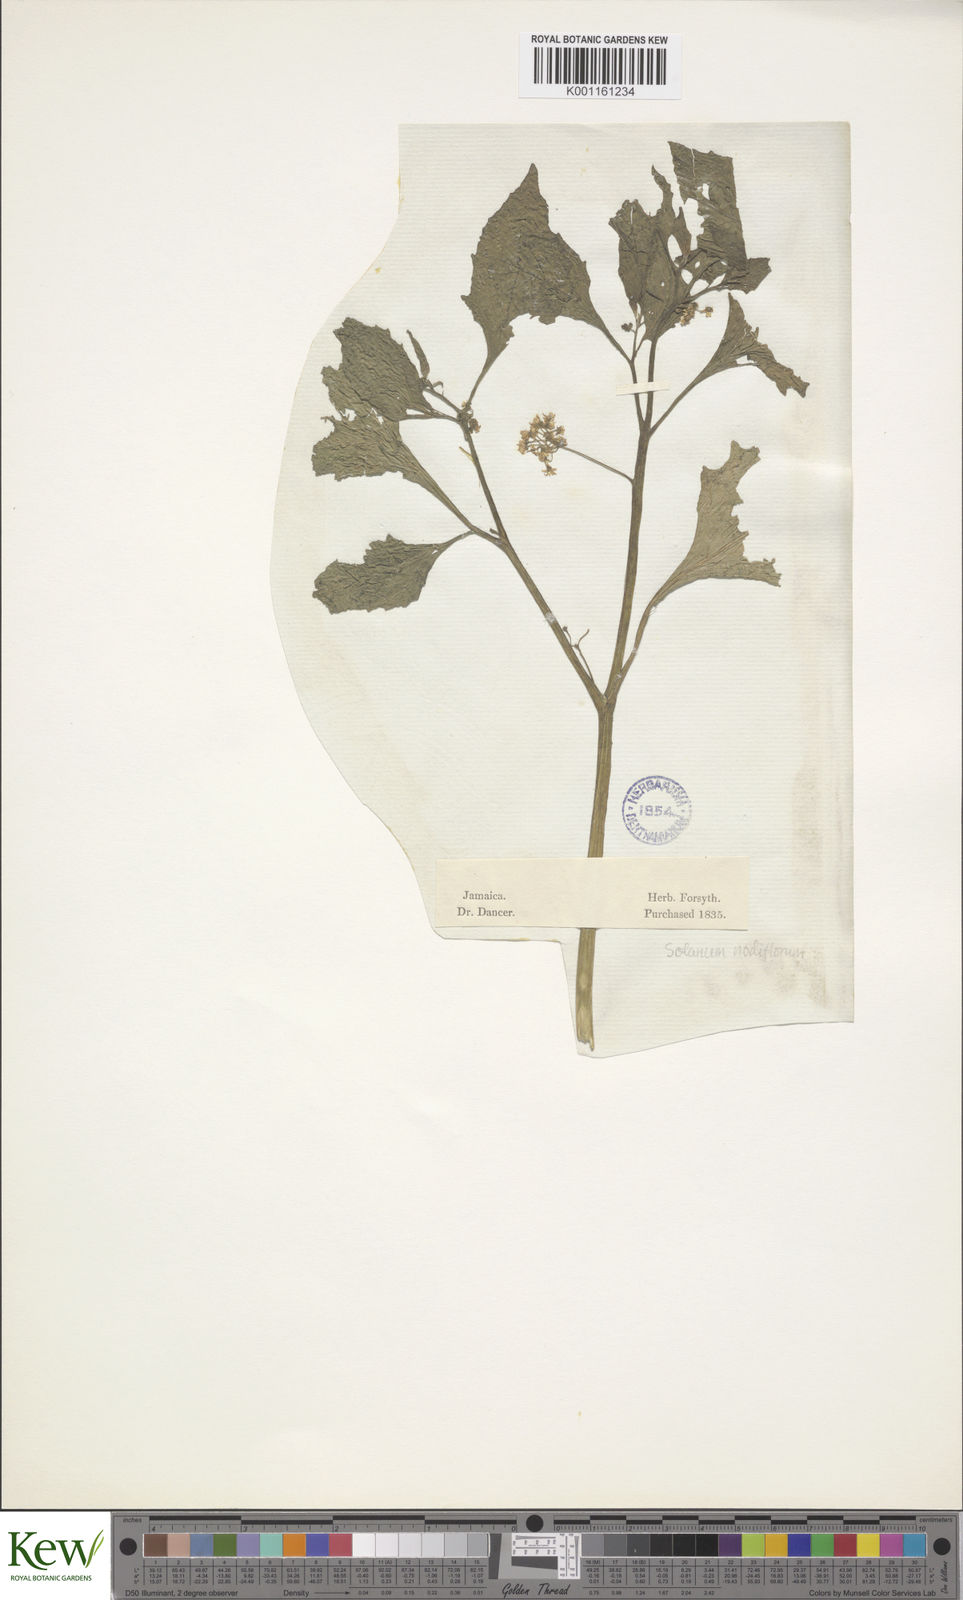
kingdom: Plantae
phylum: Tracheophyta
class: Magnoliopsida
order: Solanales
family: Solanaceae
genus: Solanum
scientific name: Solanum americanum
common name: American black nightshade
